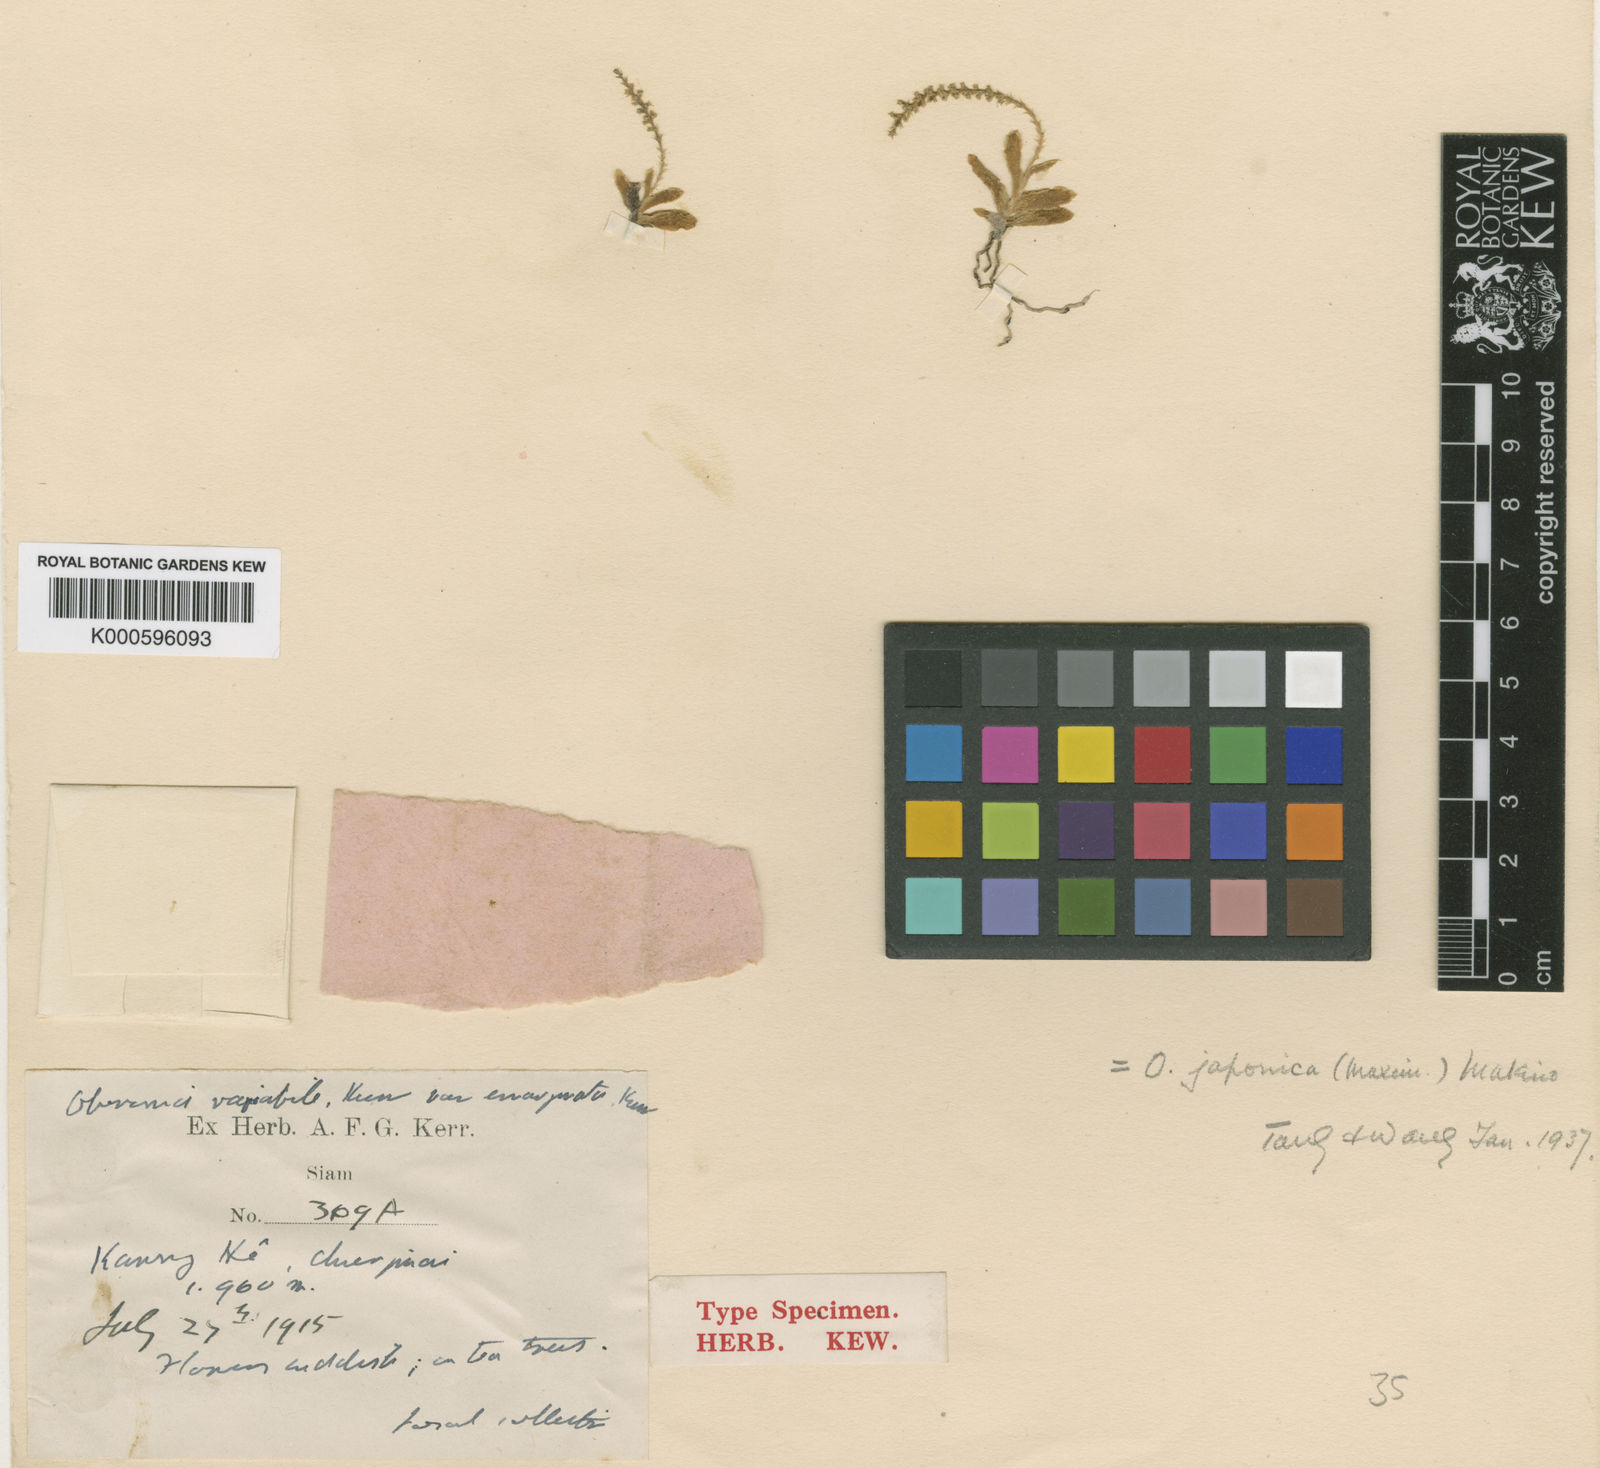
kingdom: Plantae
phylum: Tracheophyta
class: Liliopsida
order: Asparagales
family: Orchidaceae
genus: Oberonia
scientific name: Oberonia japonica
